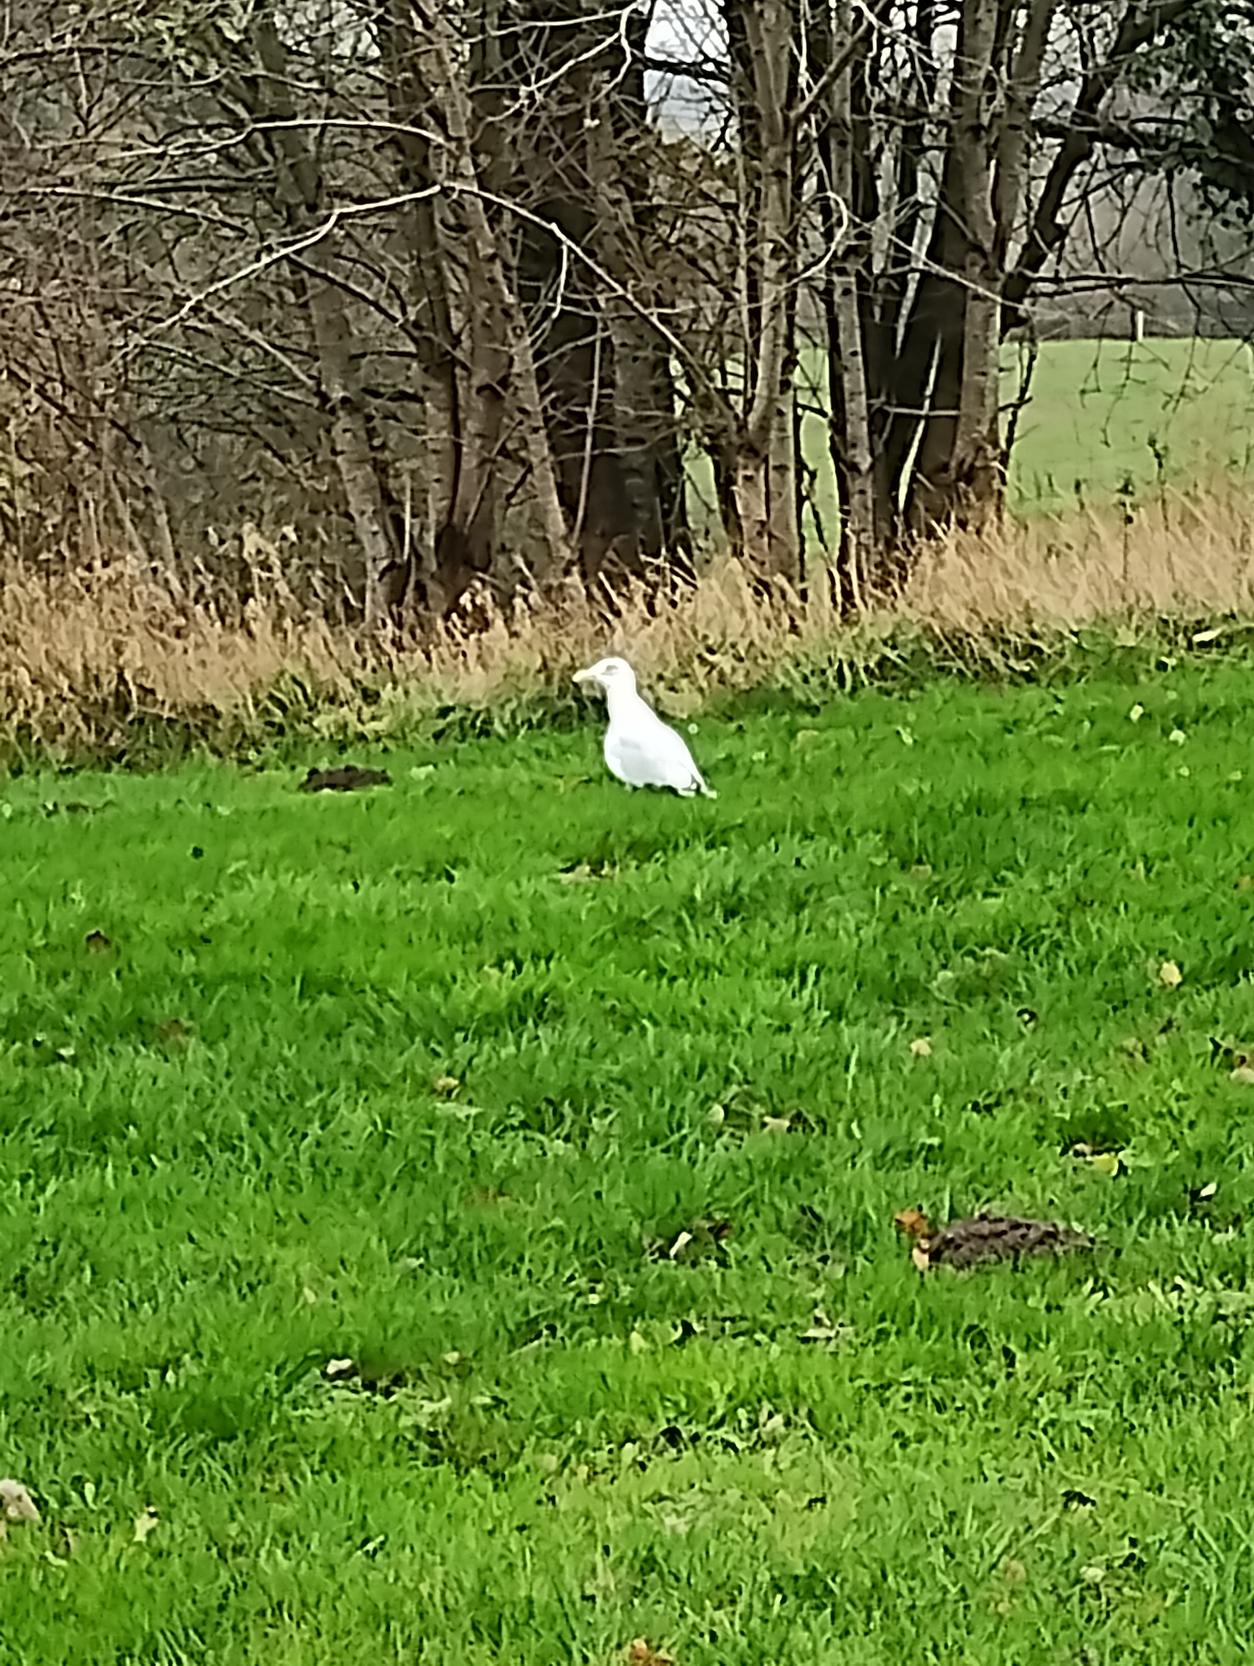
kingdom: Animalia
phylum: Chordata
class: Aves
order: Charadriiformes
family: Laridae
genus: Larus
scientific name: Larus argentatus
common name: Sølvmåge
